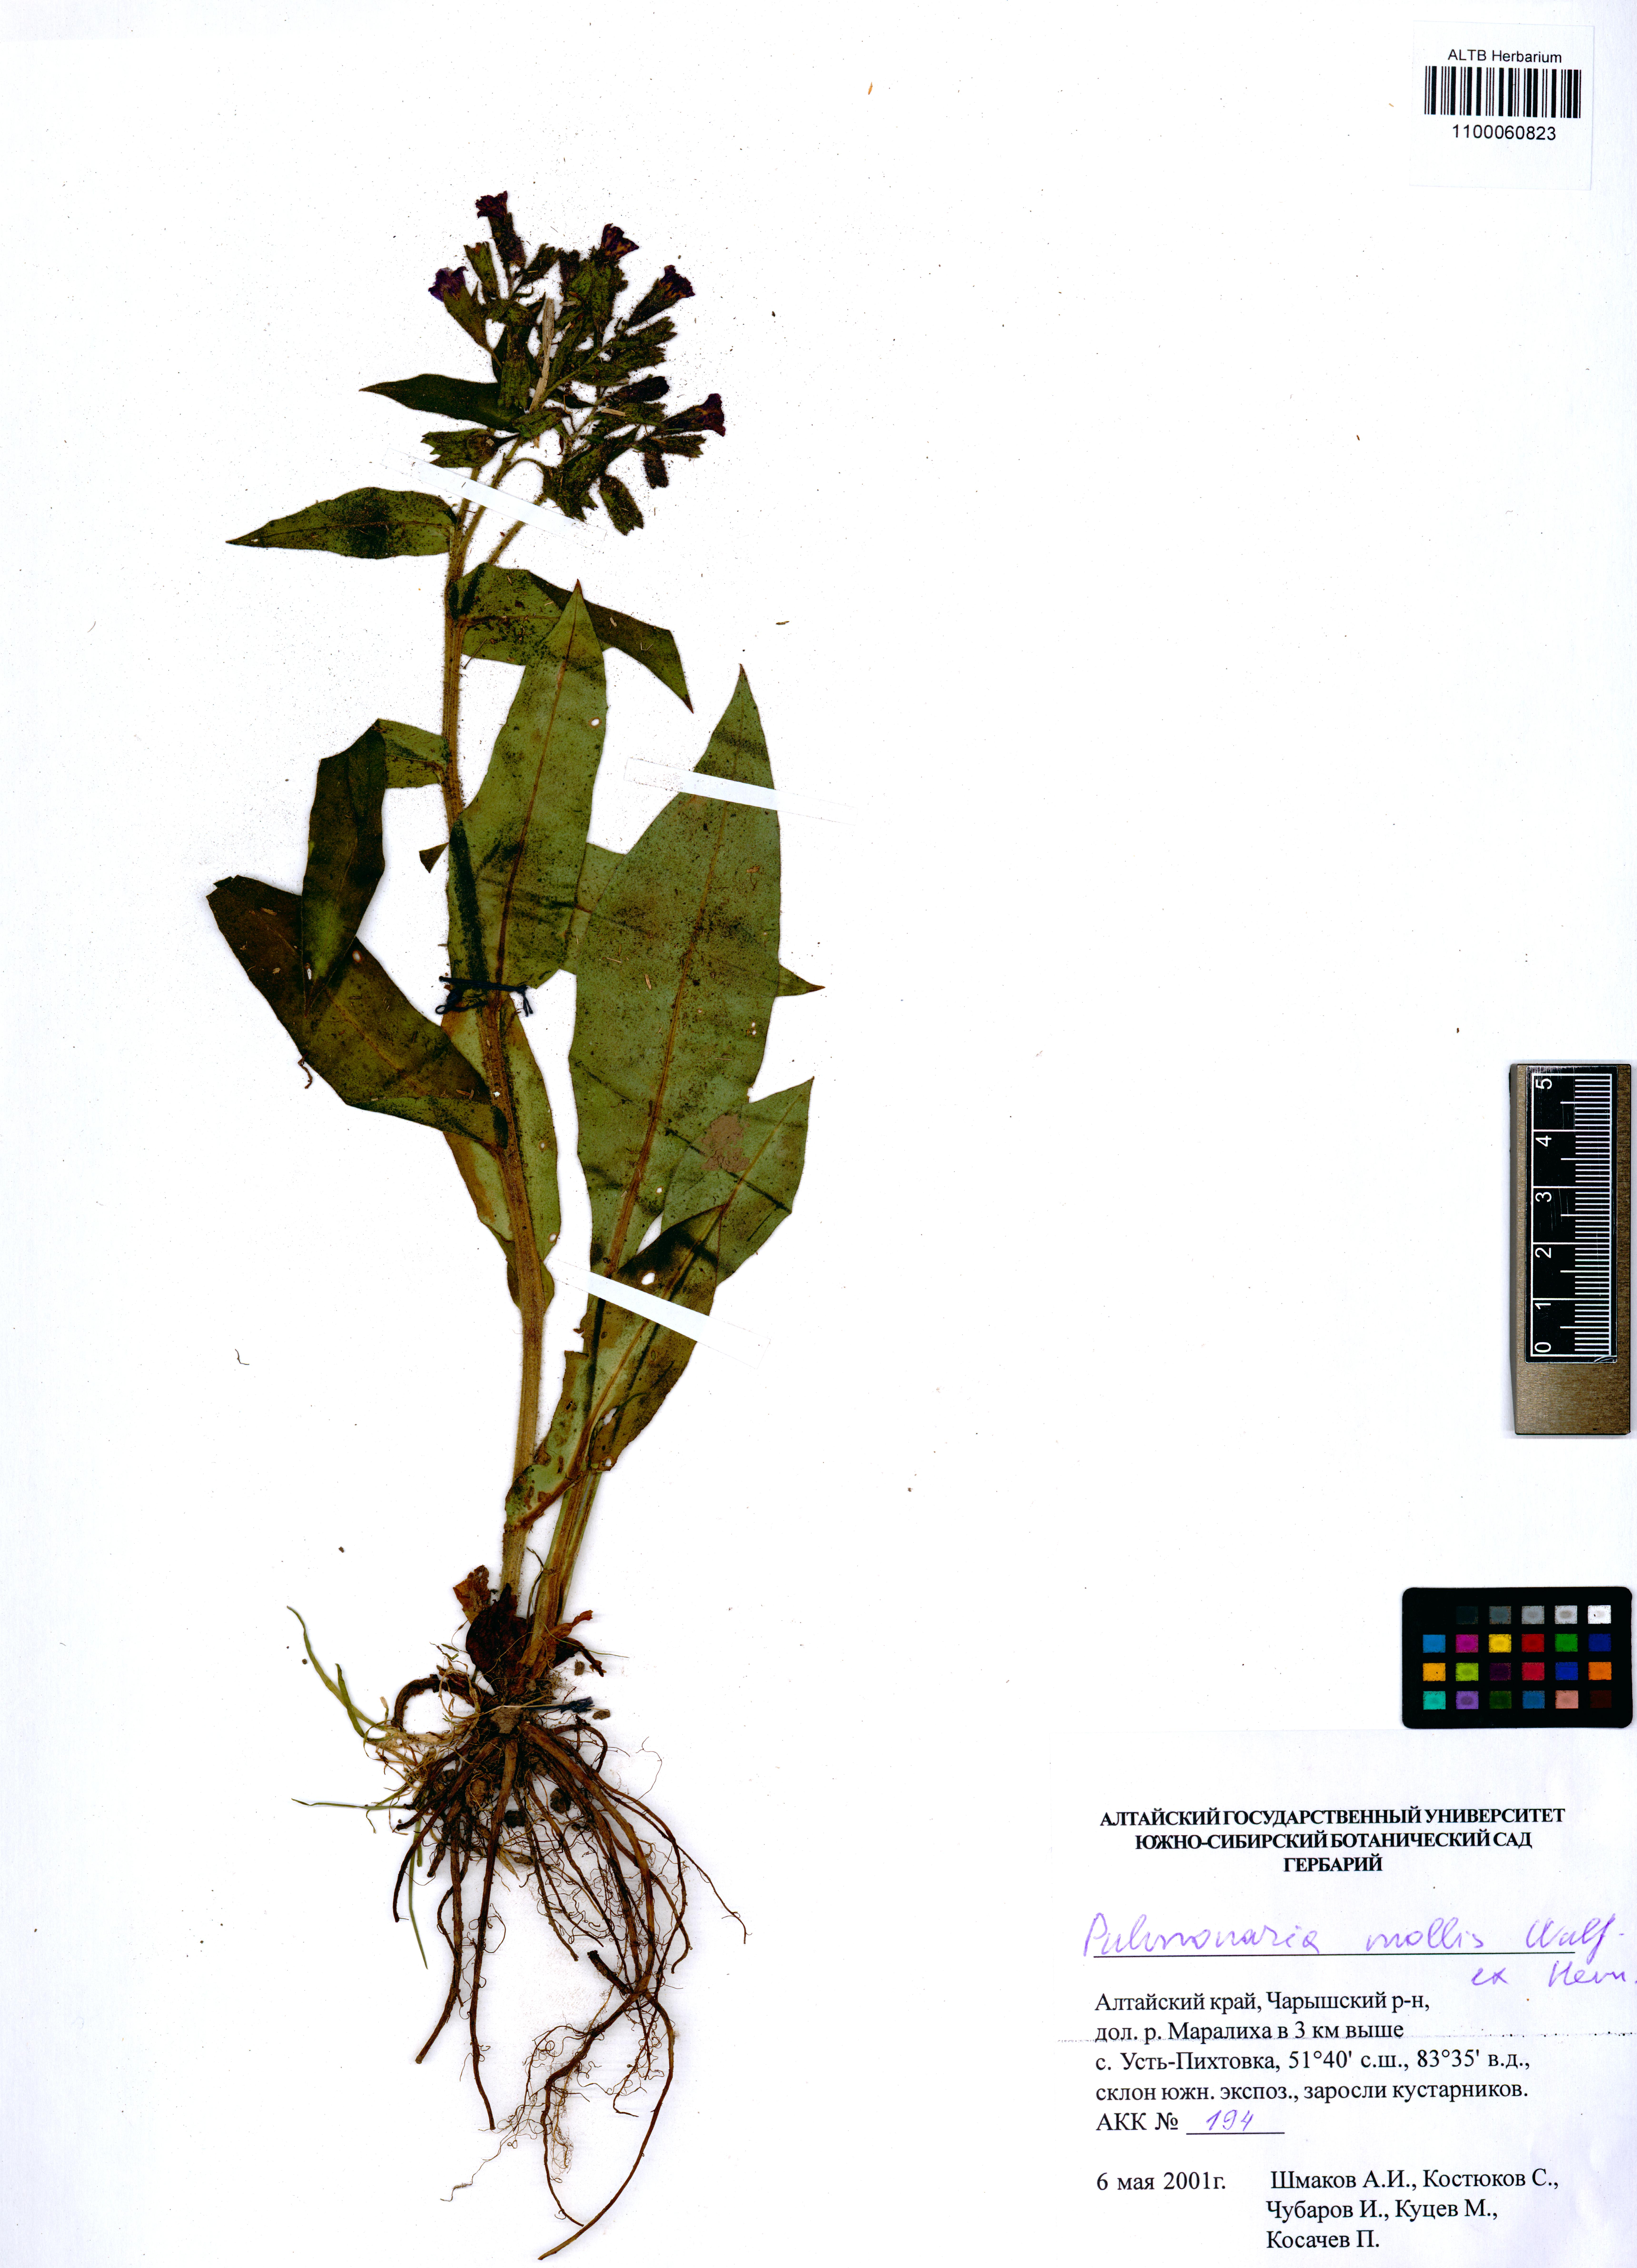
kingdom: Plantae
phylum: Tracheophyta
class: Magnoliopsida
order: Boraginales
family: Boraginaceae
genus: Pulmonaria
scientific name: Pulmonaria mollis
